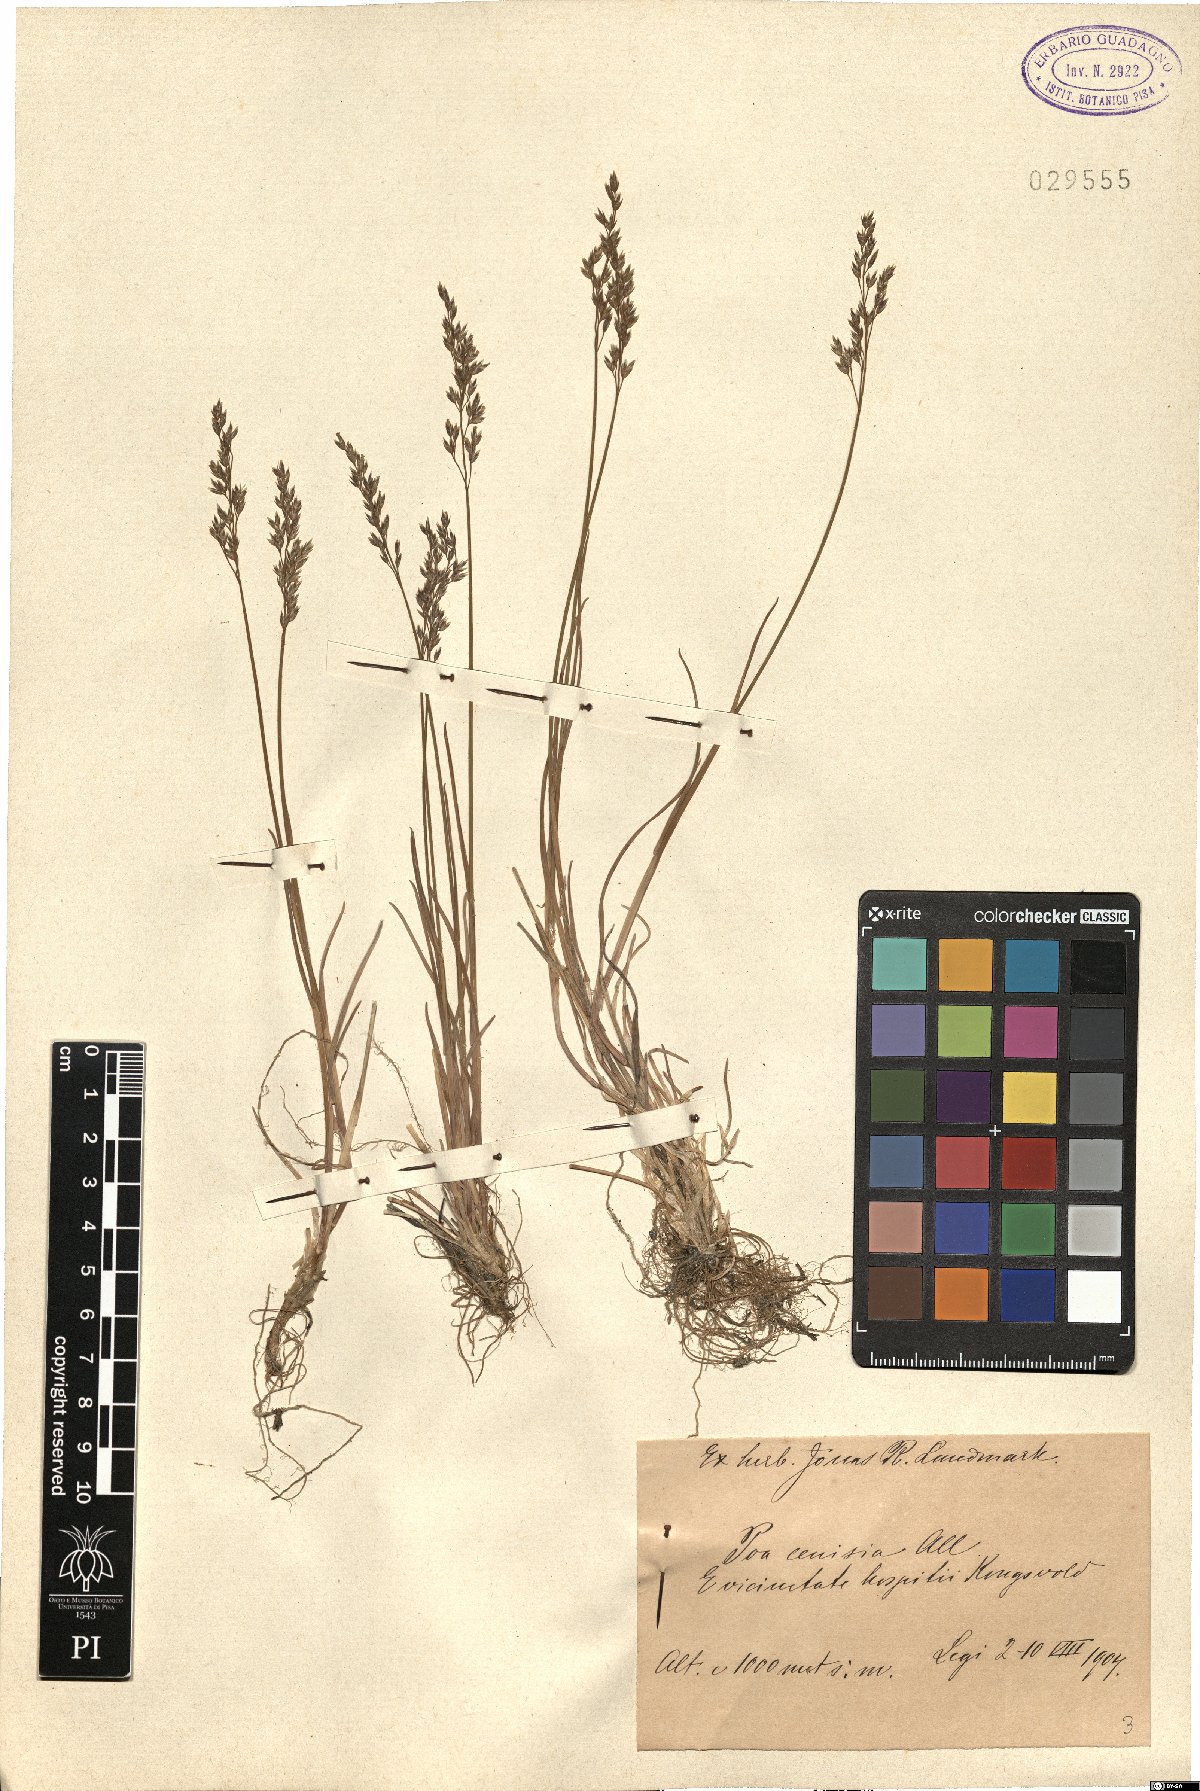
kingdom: Plantae
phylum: Tracheophyta
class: Liliopsida
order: Poales
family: Poaceae
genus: Poa
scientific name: Poa cenisia
